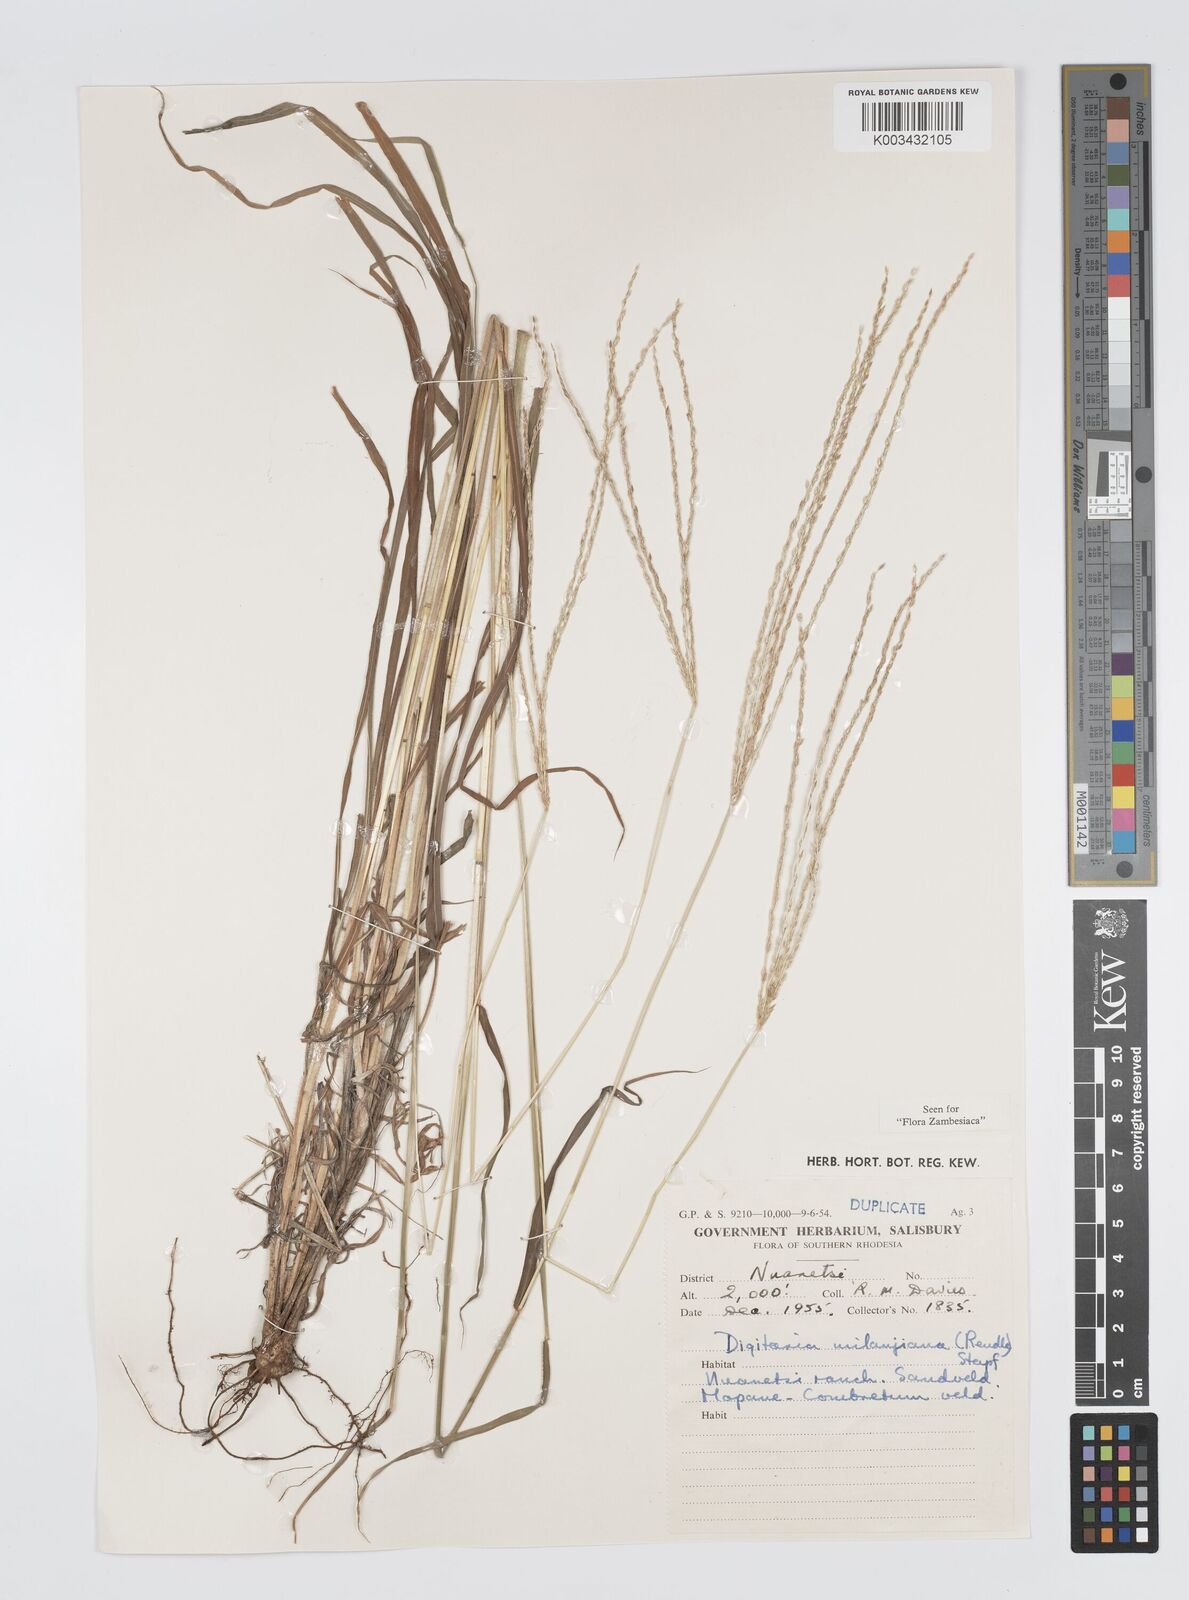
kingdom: Plantae
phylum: Tracheophyta
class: Liliopsida
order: Poales
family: Poaceae
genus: Digitaria
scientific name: Digitaria milanjiana
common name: Madagascar crabgrass
